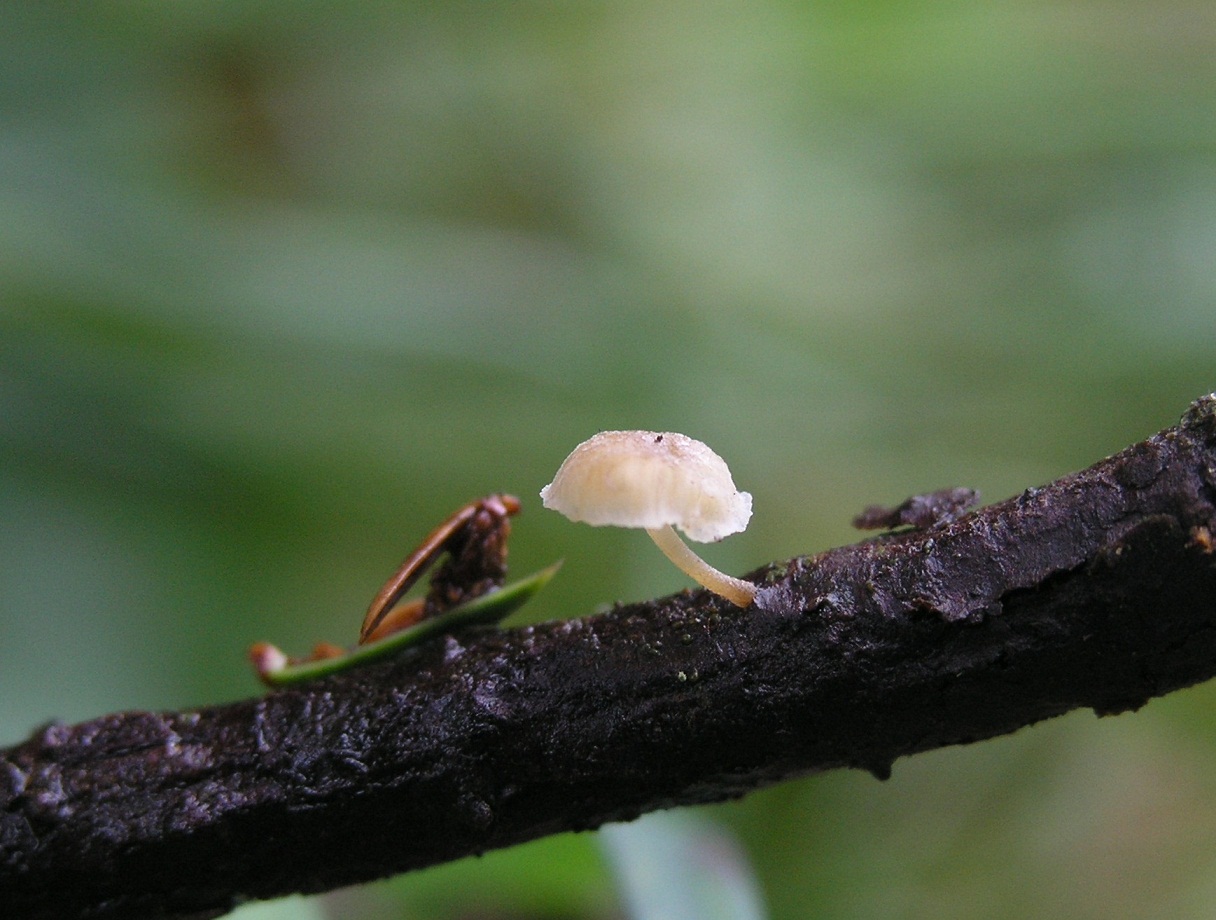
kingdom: Fungi
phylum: Basidiomycota
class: Agaricomycetes
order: Agaricales
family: Mycenaceae
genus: Mycena
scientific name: Mycena juniperina
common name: ene-Huesvamp
